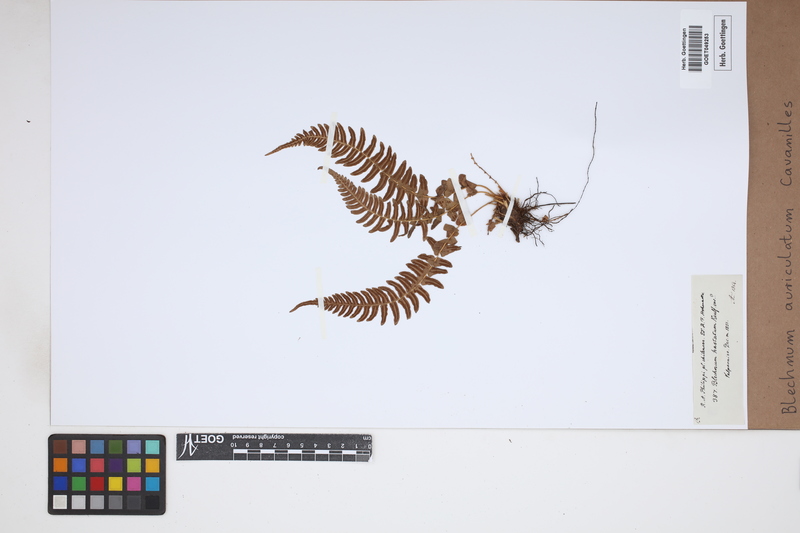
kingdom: Plantae
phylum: Tracheophyta
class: Polypodiopsida
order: Polypodiales
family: Blechnaceae
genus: Blechnum
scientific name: Blechnum auriculatum
